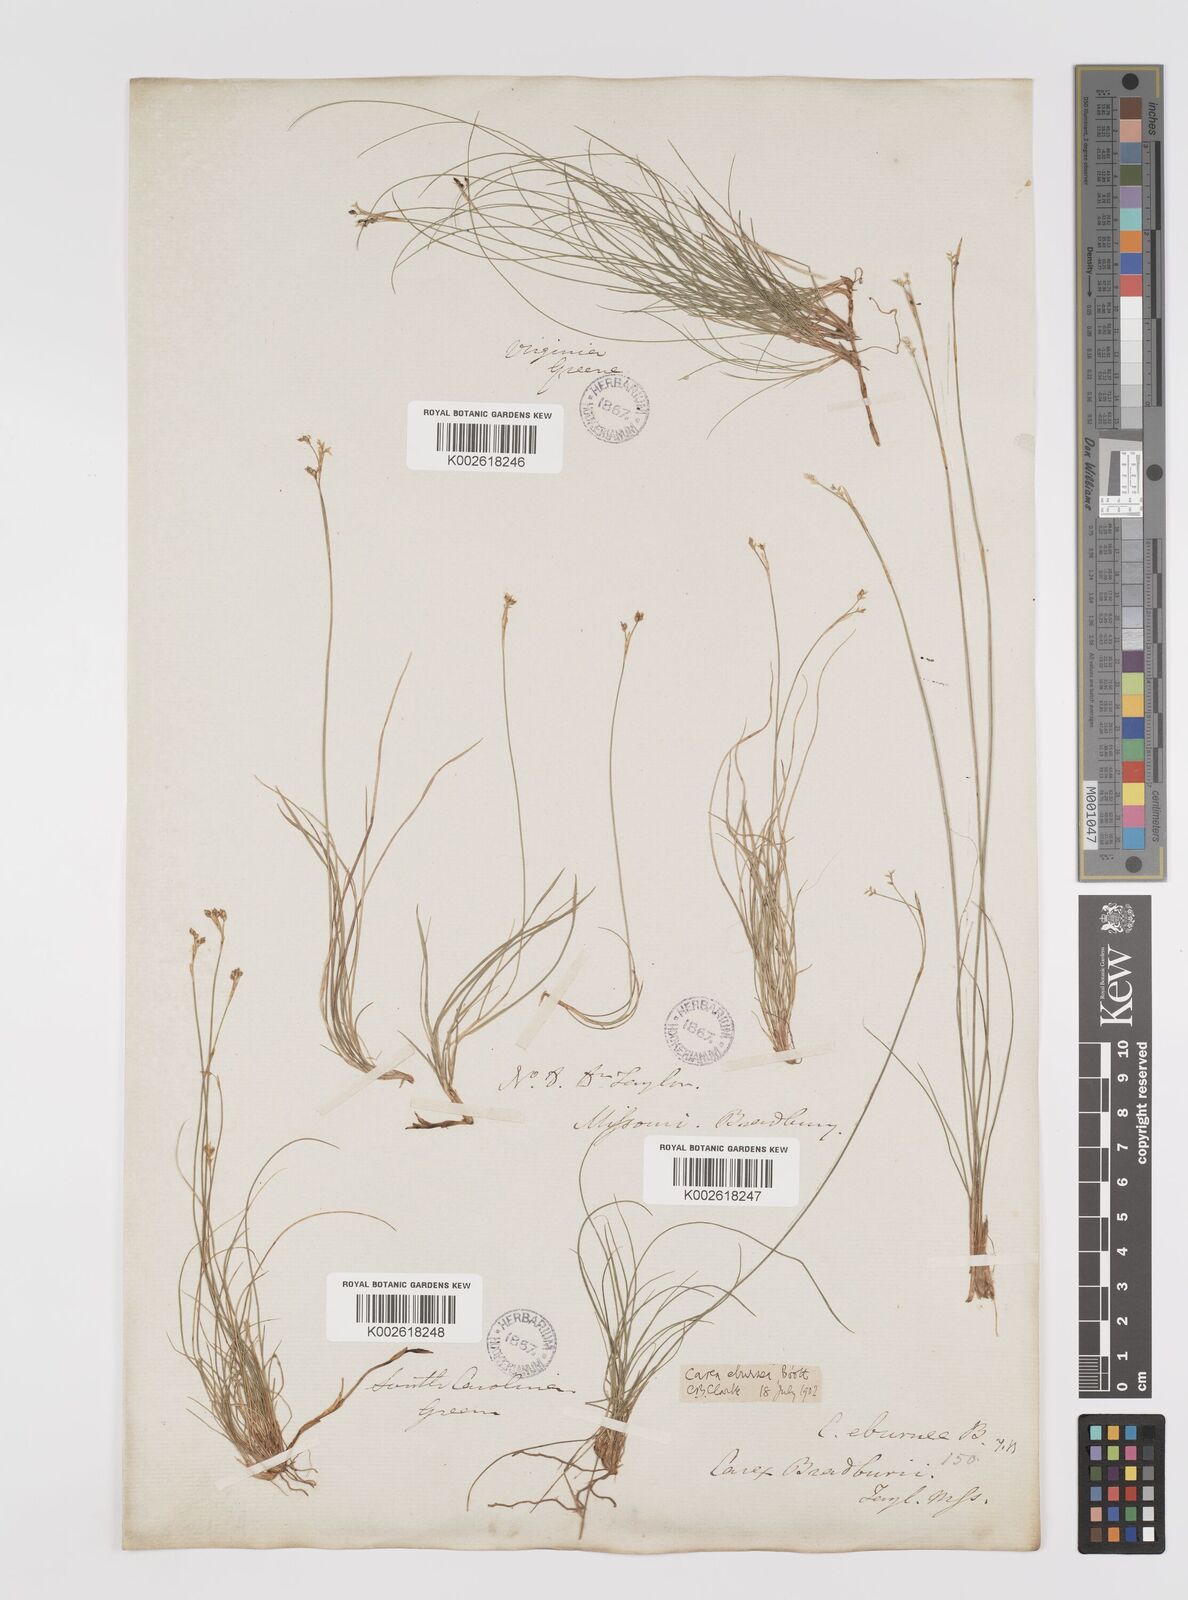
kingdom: Plantae
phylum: Tracheophyta
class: Liliopsida
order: Poales
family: Cyperaceae
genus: Carex
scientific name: Carex eburnea
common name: Bristle-leaved sedge
